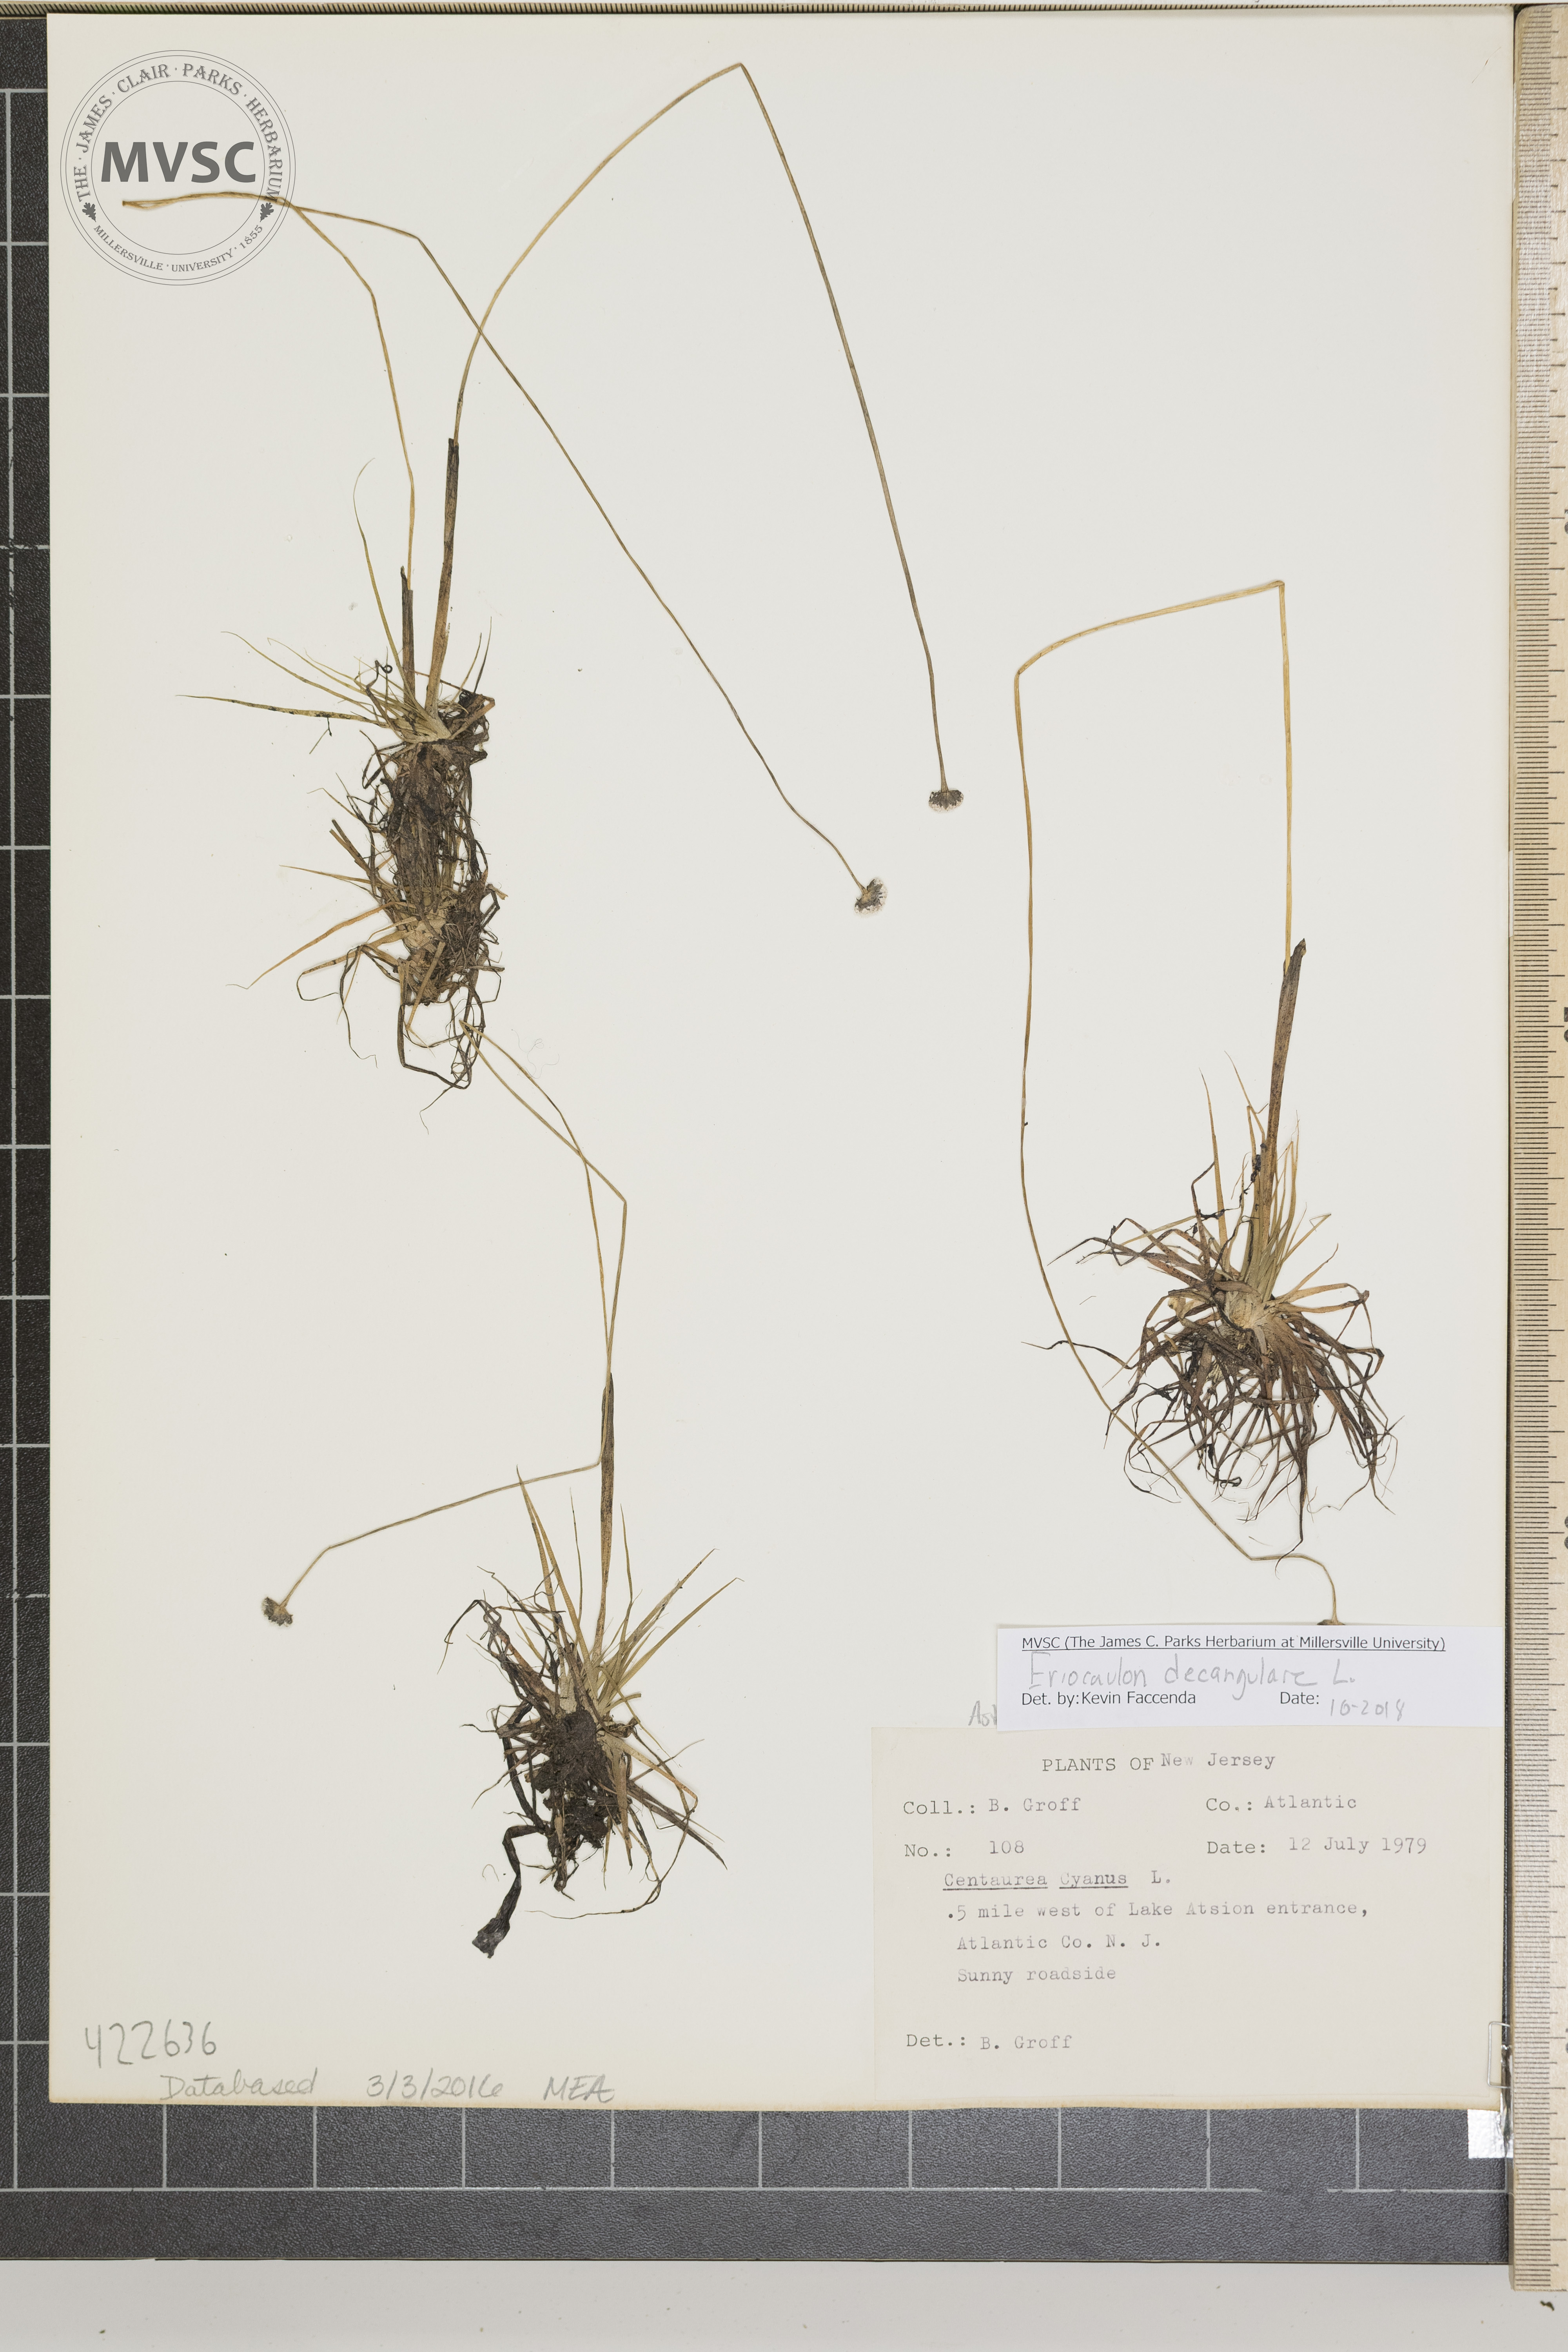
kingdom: Plantae
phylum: Tracheophyta
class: Liliopsida
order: Poales
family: Eriocaulaceae
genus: Eriocaulon
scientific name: Eriocaulon decangulare
